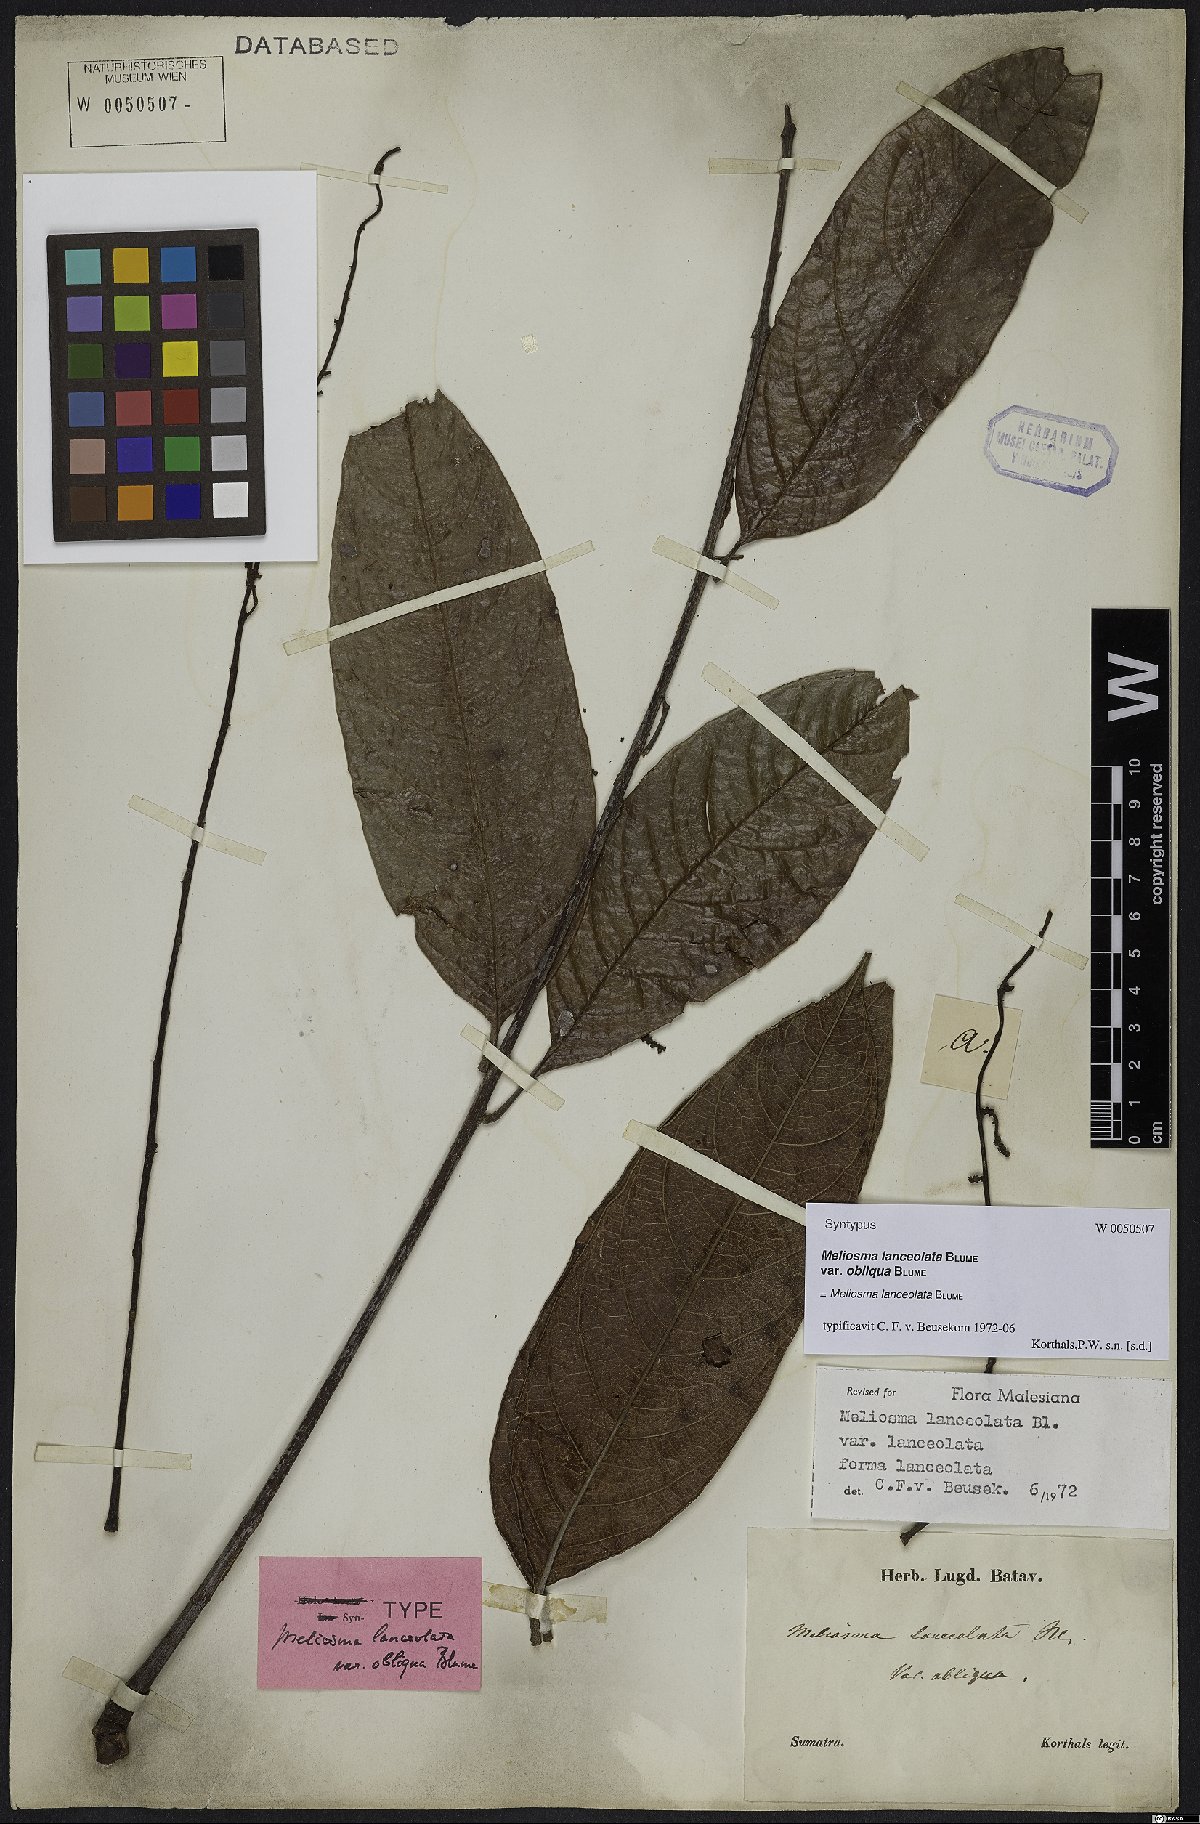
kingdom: Plantae
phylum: Tracheophyta
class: Magnoliopsida
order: Proteales
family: Sabiaceae
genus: Meliosma
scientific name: Meliosma lanceolata
